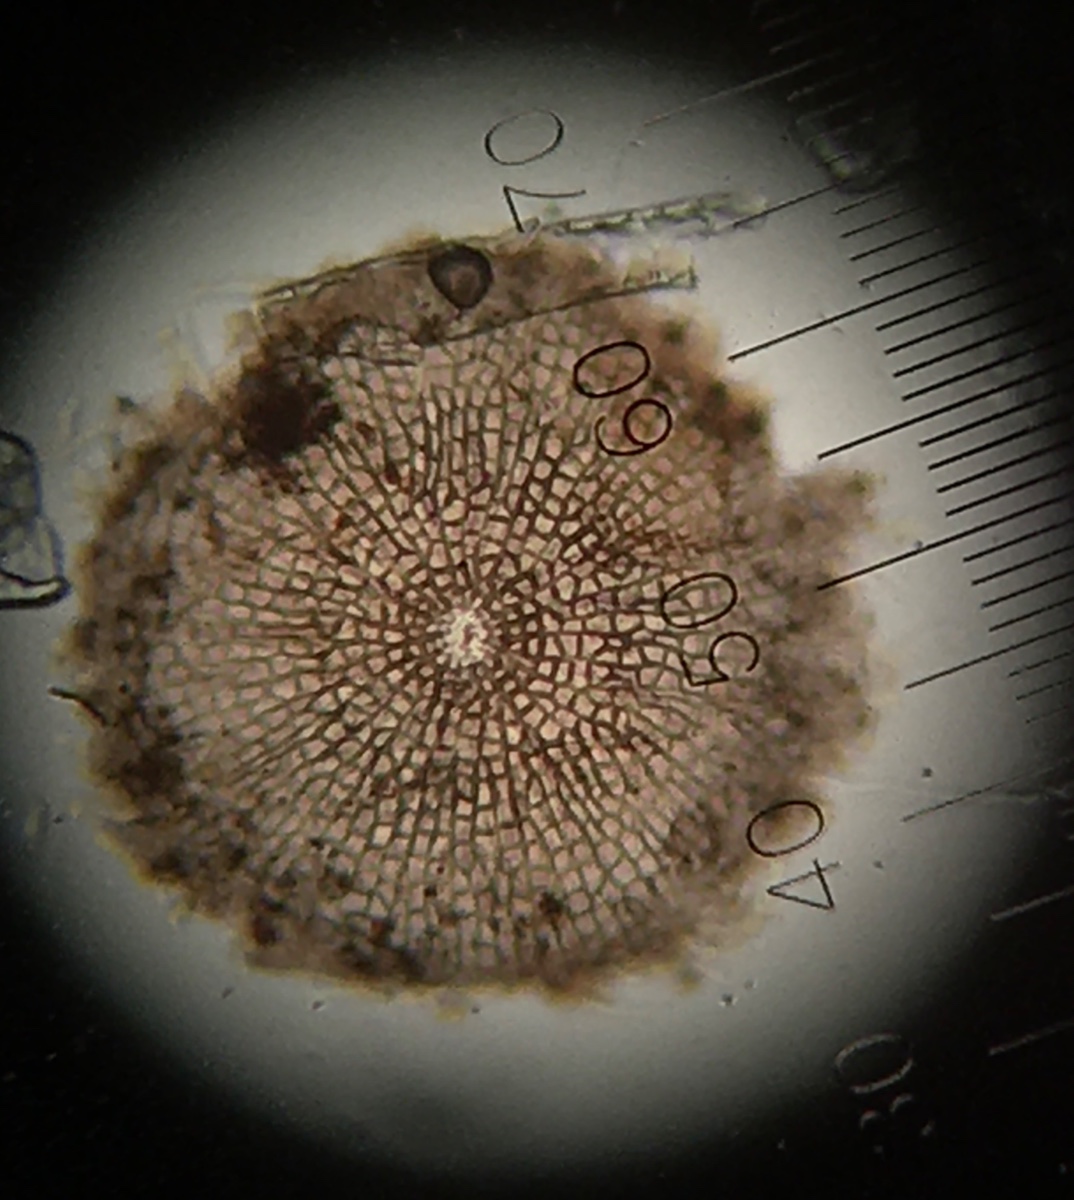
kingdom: Fungi
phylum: Ascomycota
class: Dothideomycetes
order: Microthyriales
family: Microthyriaceae
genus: Microthyrium
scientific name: Microthyrium ciliatum
